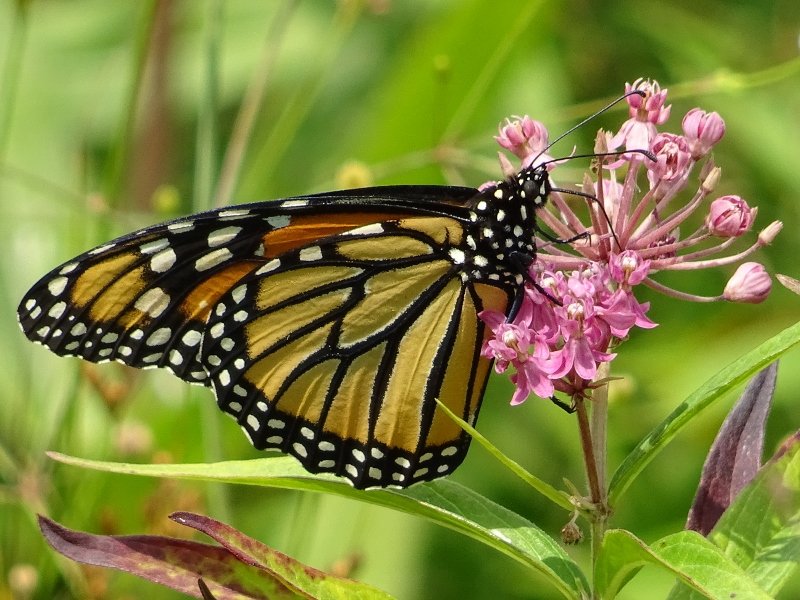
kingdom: Animalia
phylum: Arthropoda
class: Insecta
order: Lepidoptera
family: Nymphalidae
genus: Danaus
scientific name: Danaus plexippus
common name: Monarch
